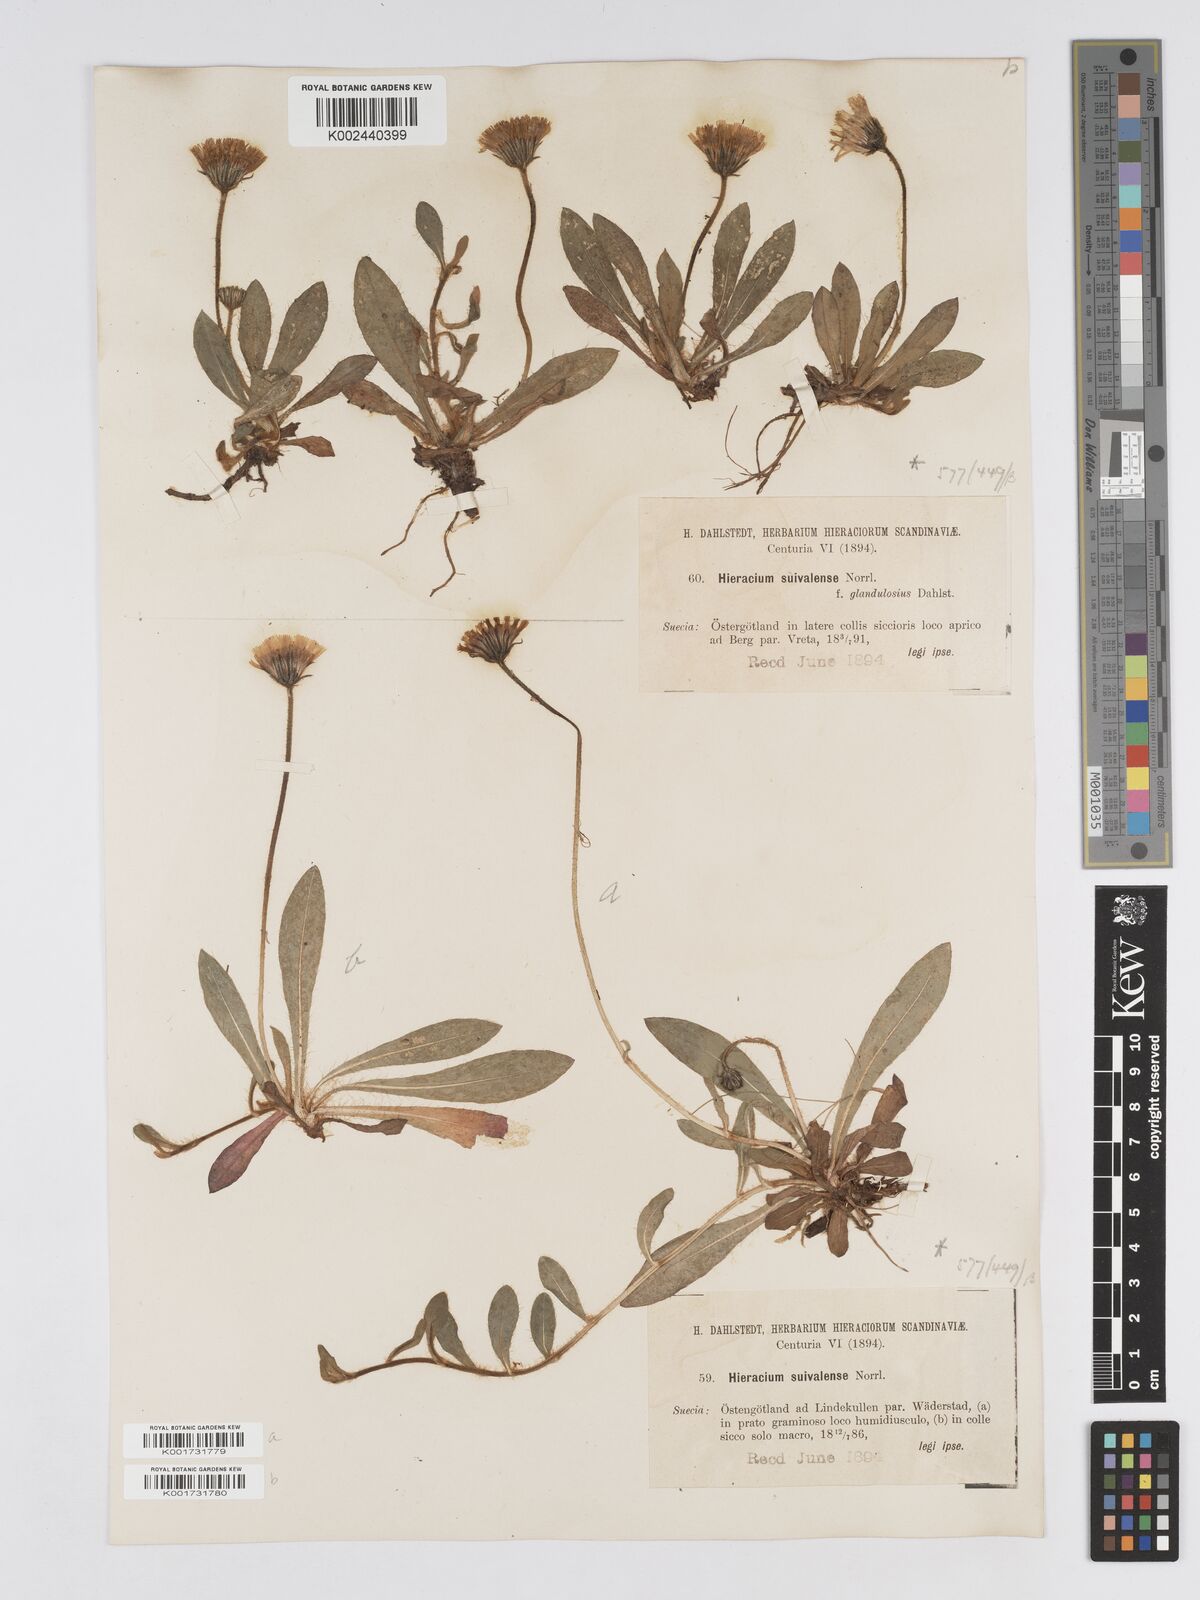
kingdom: Plantae
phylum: Tracheophyta
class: Magnoliopsida
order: Asterales
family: Asteraceae
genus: Pilosella
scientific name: Pilosella officinarum
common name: Mouse-ear hawkweed
